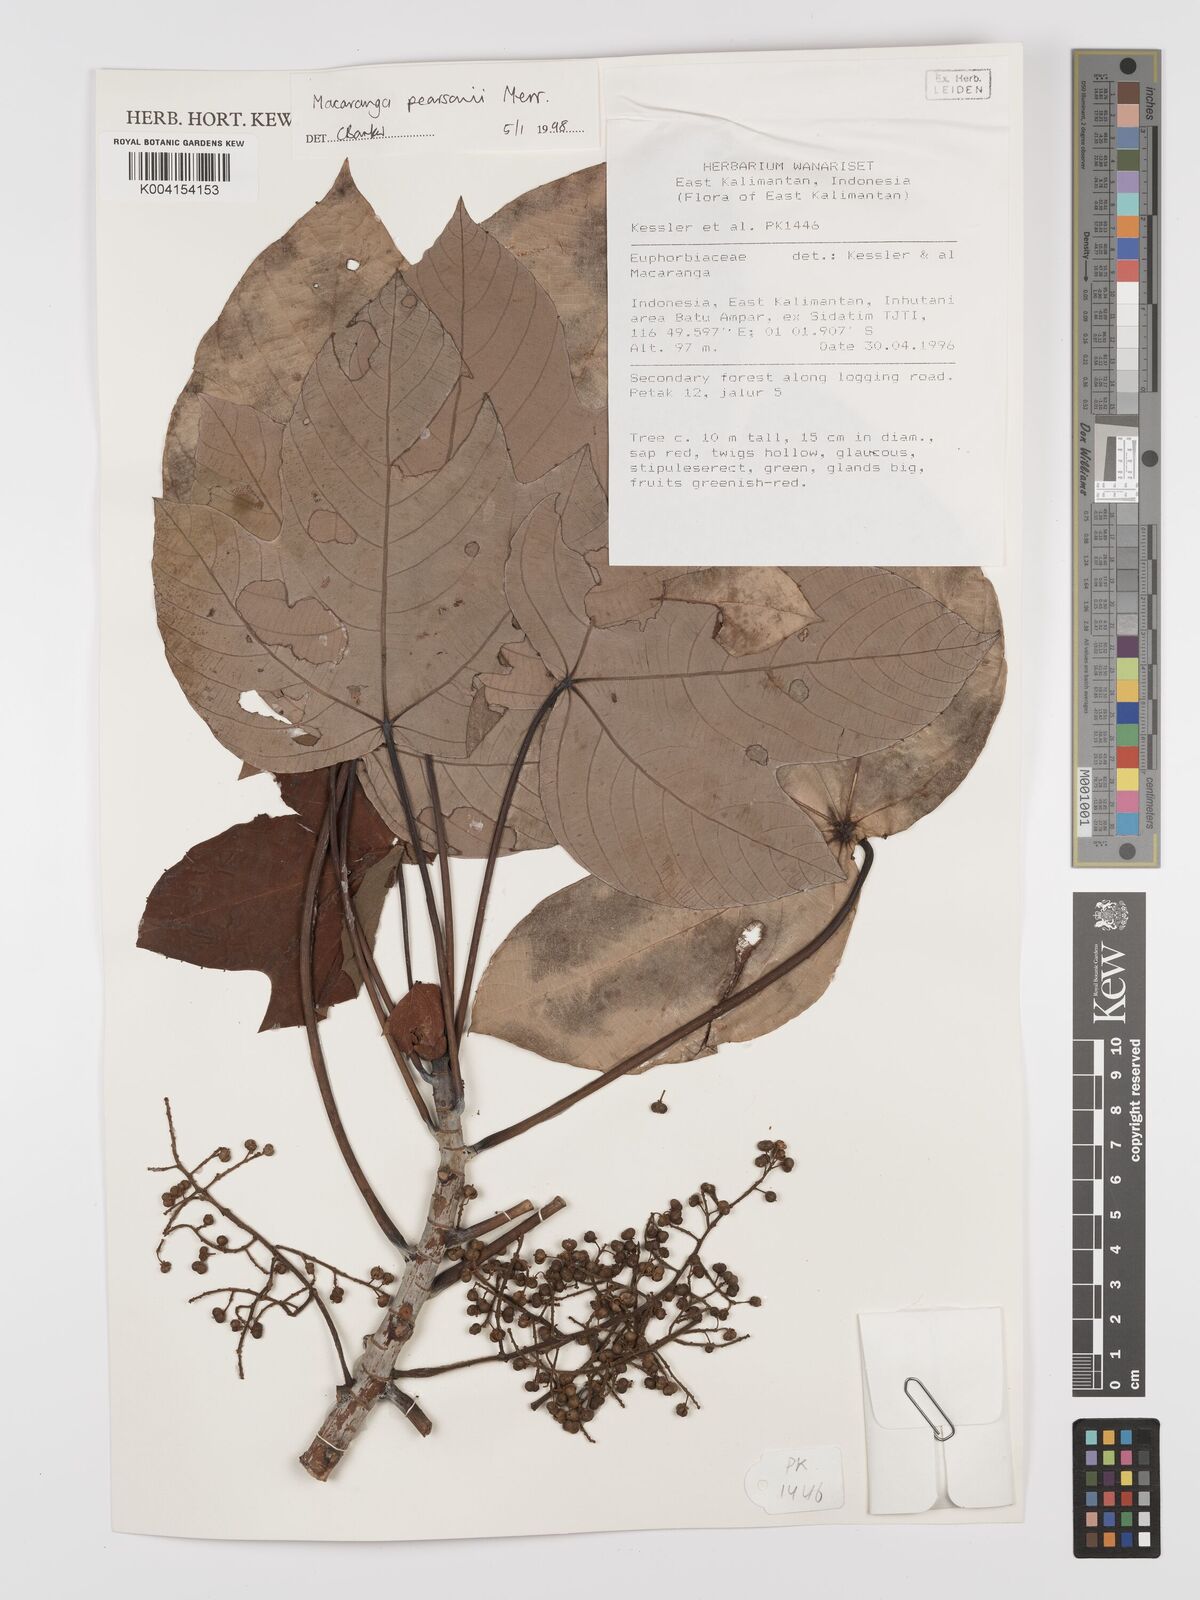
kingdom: Plantae
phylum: Tracheophyta
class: Magnoliopsida
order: Malpighiales
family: Euphorbiaceae
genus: Macaranga
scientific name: Macaranga pearsonii
